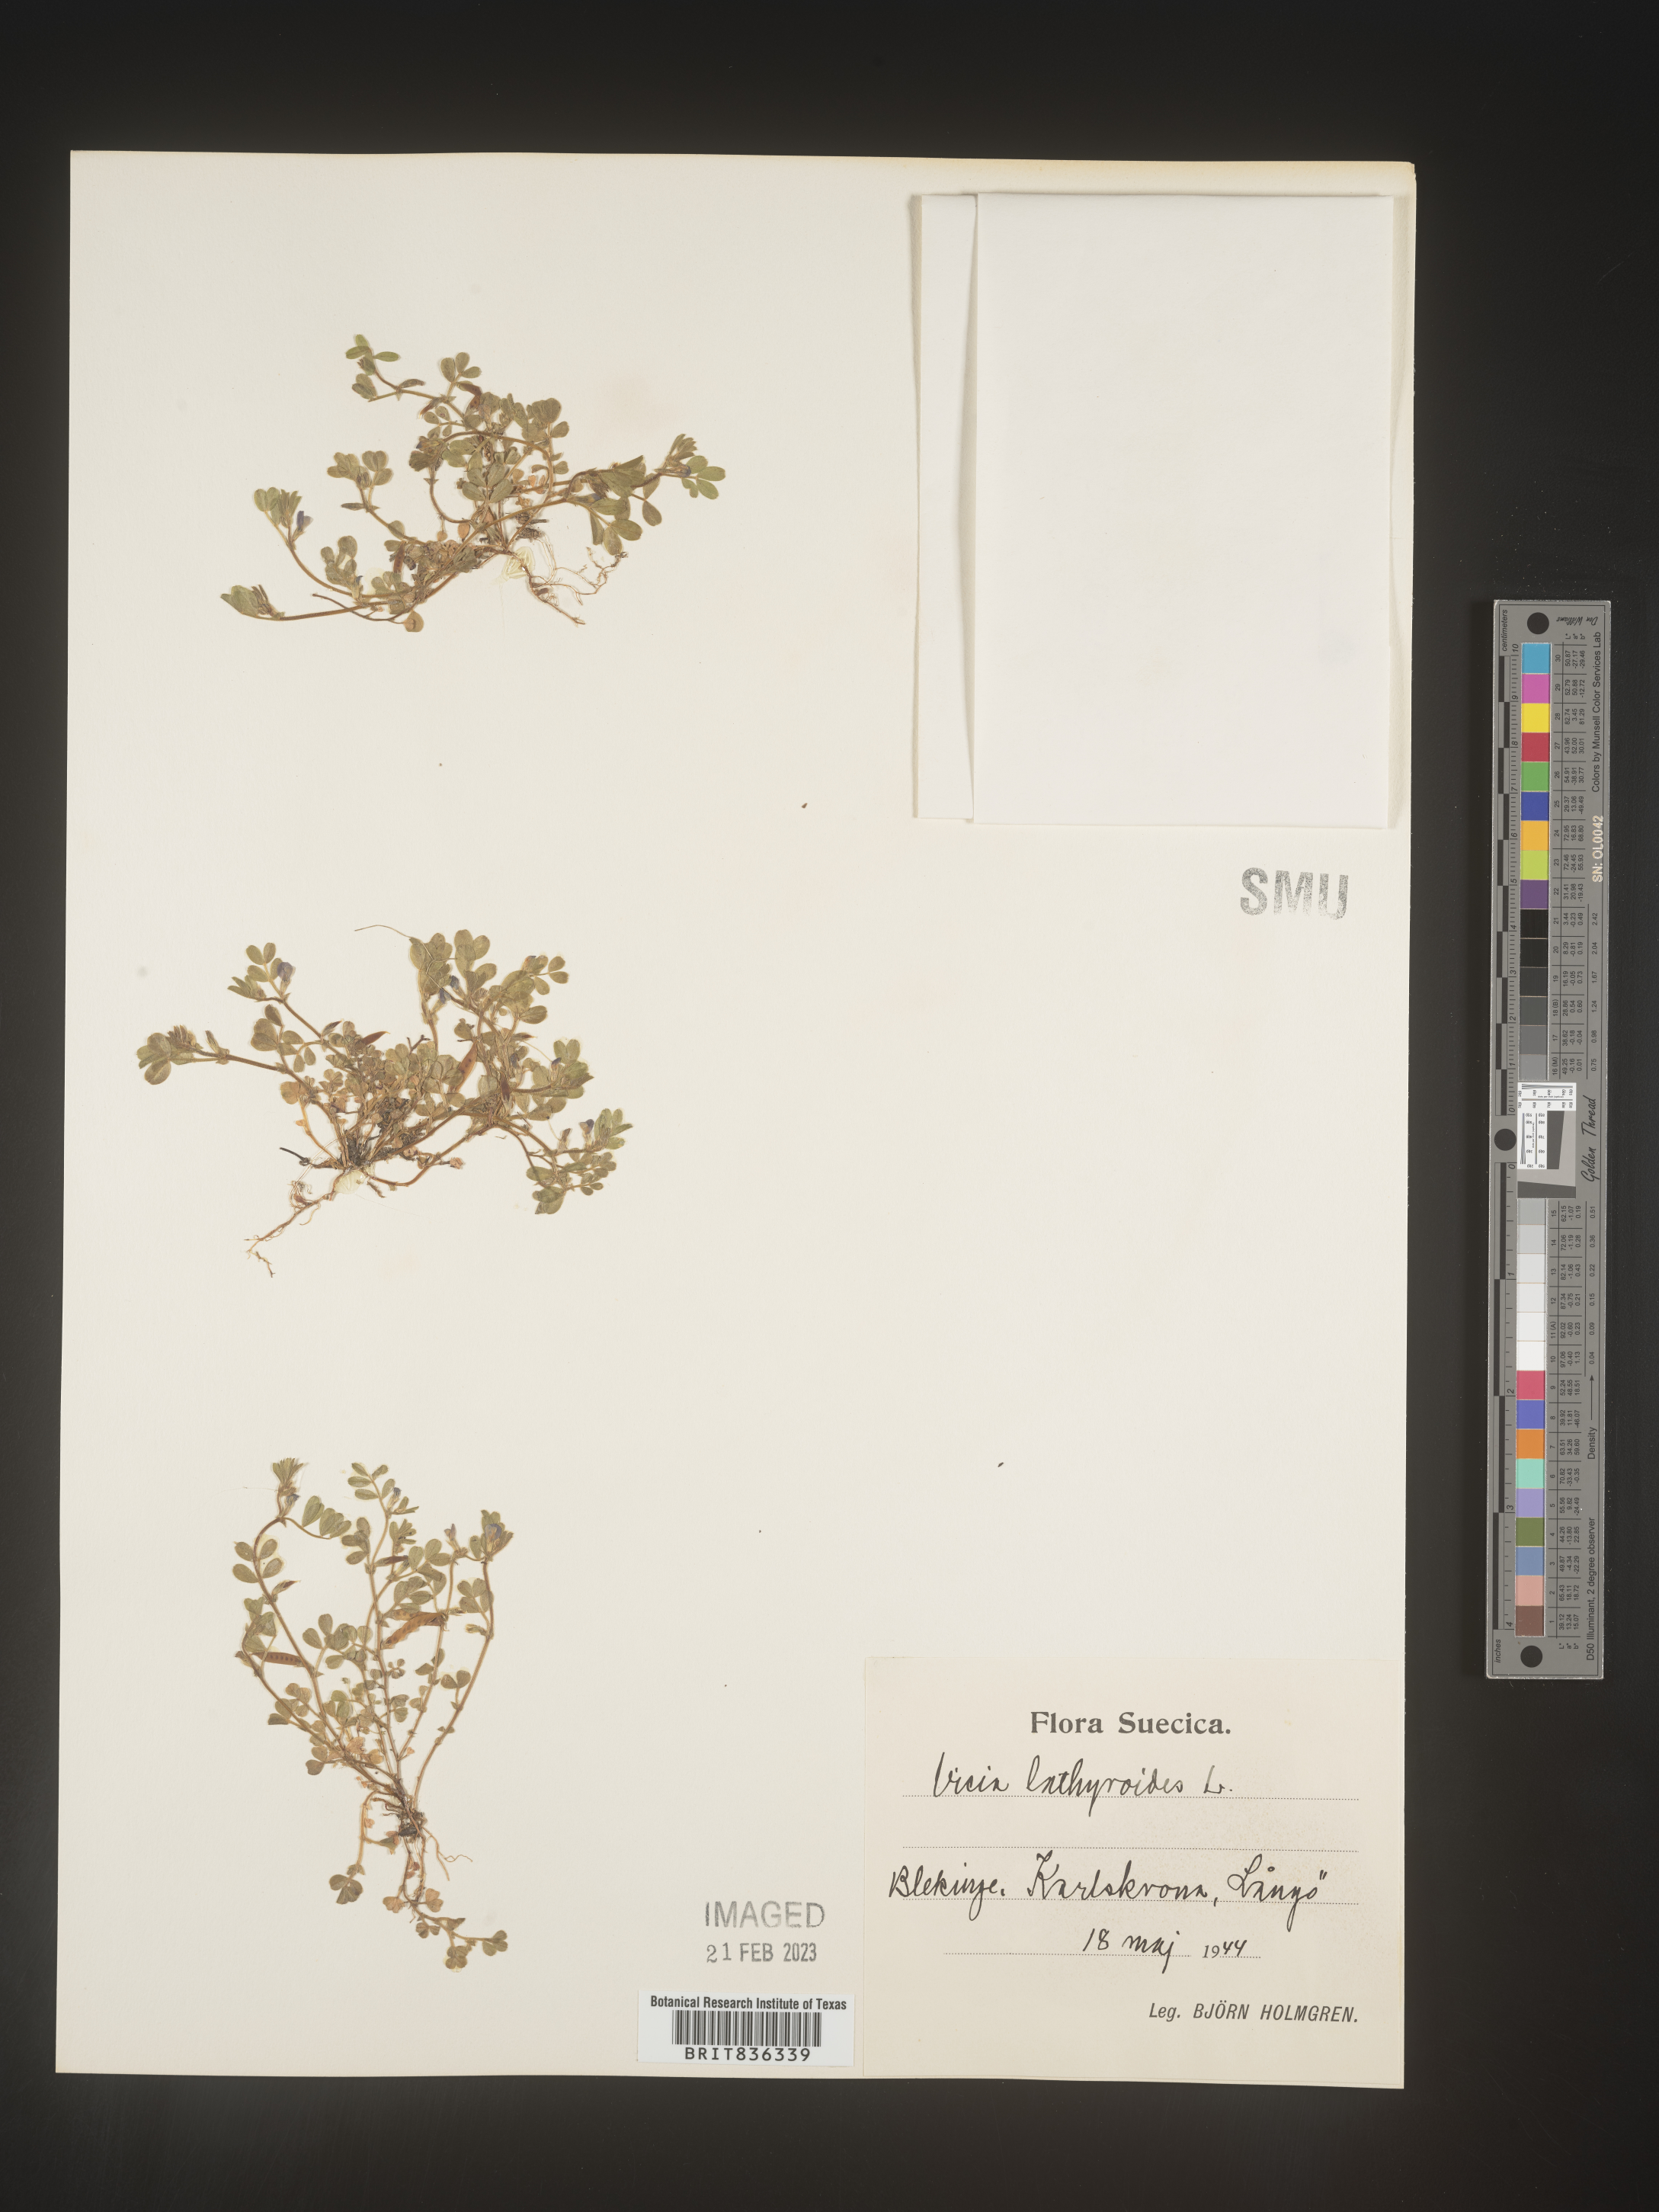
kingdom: Plantae
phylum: Tracheophyta
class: Magnoliopsida
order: Fabales
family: Fabaceae
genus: Vicia
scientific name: Vicia
